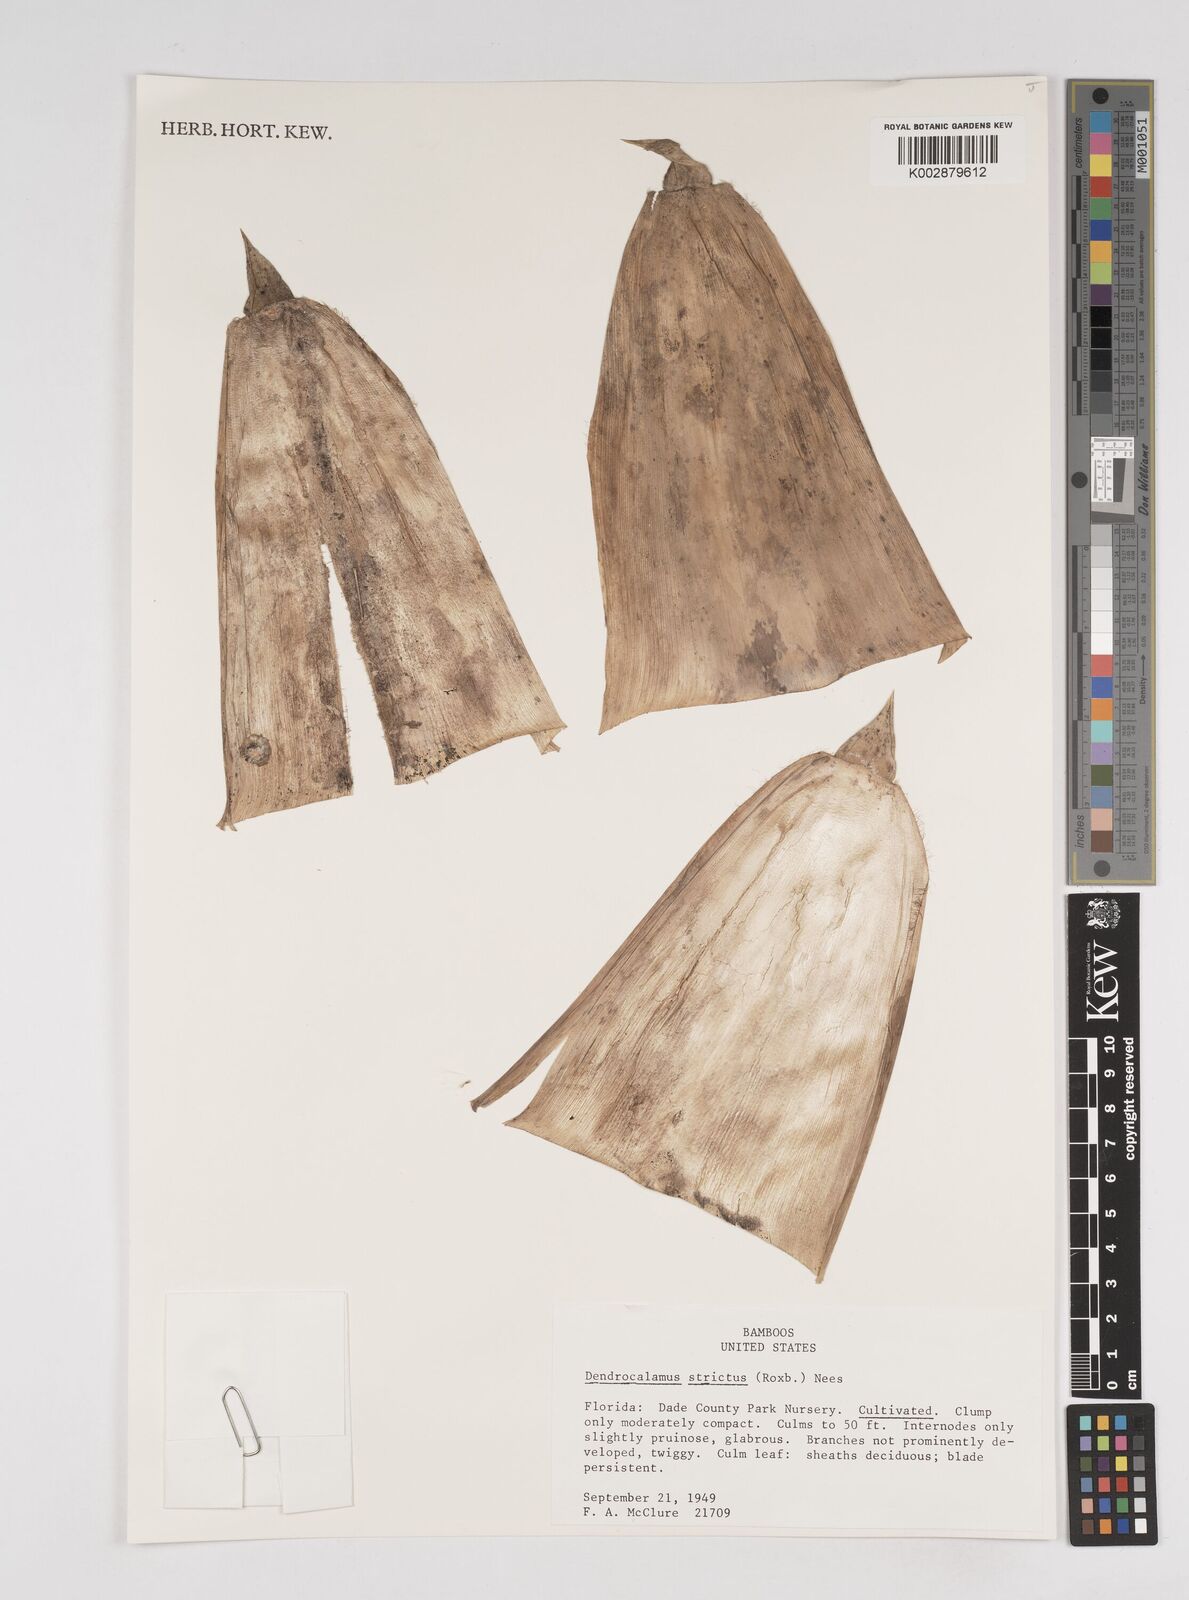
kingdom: Plantae
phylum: Tracheophyta
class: Liliopsida
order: Poales
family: Poaceae
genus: Dendrocalamus
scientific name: Dendrocalamus strictus
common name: Male bamboo
